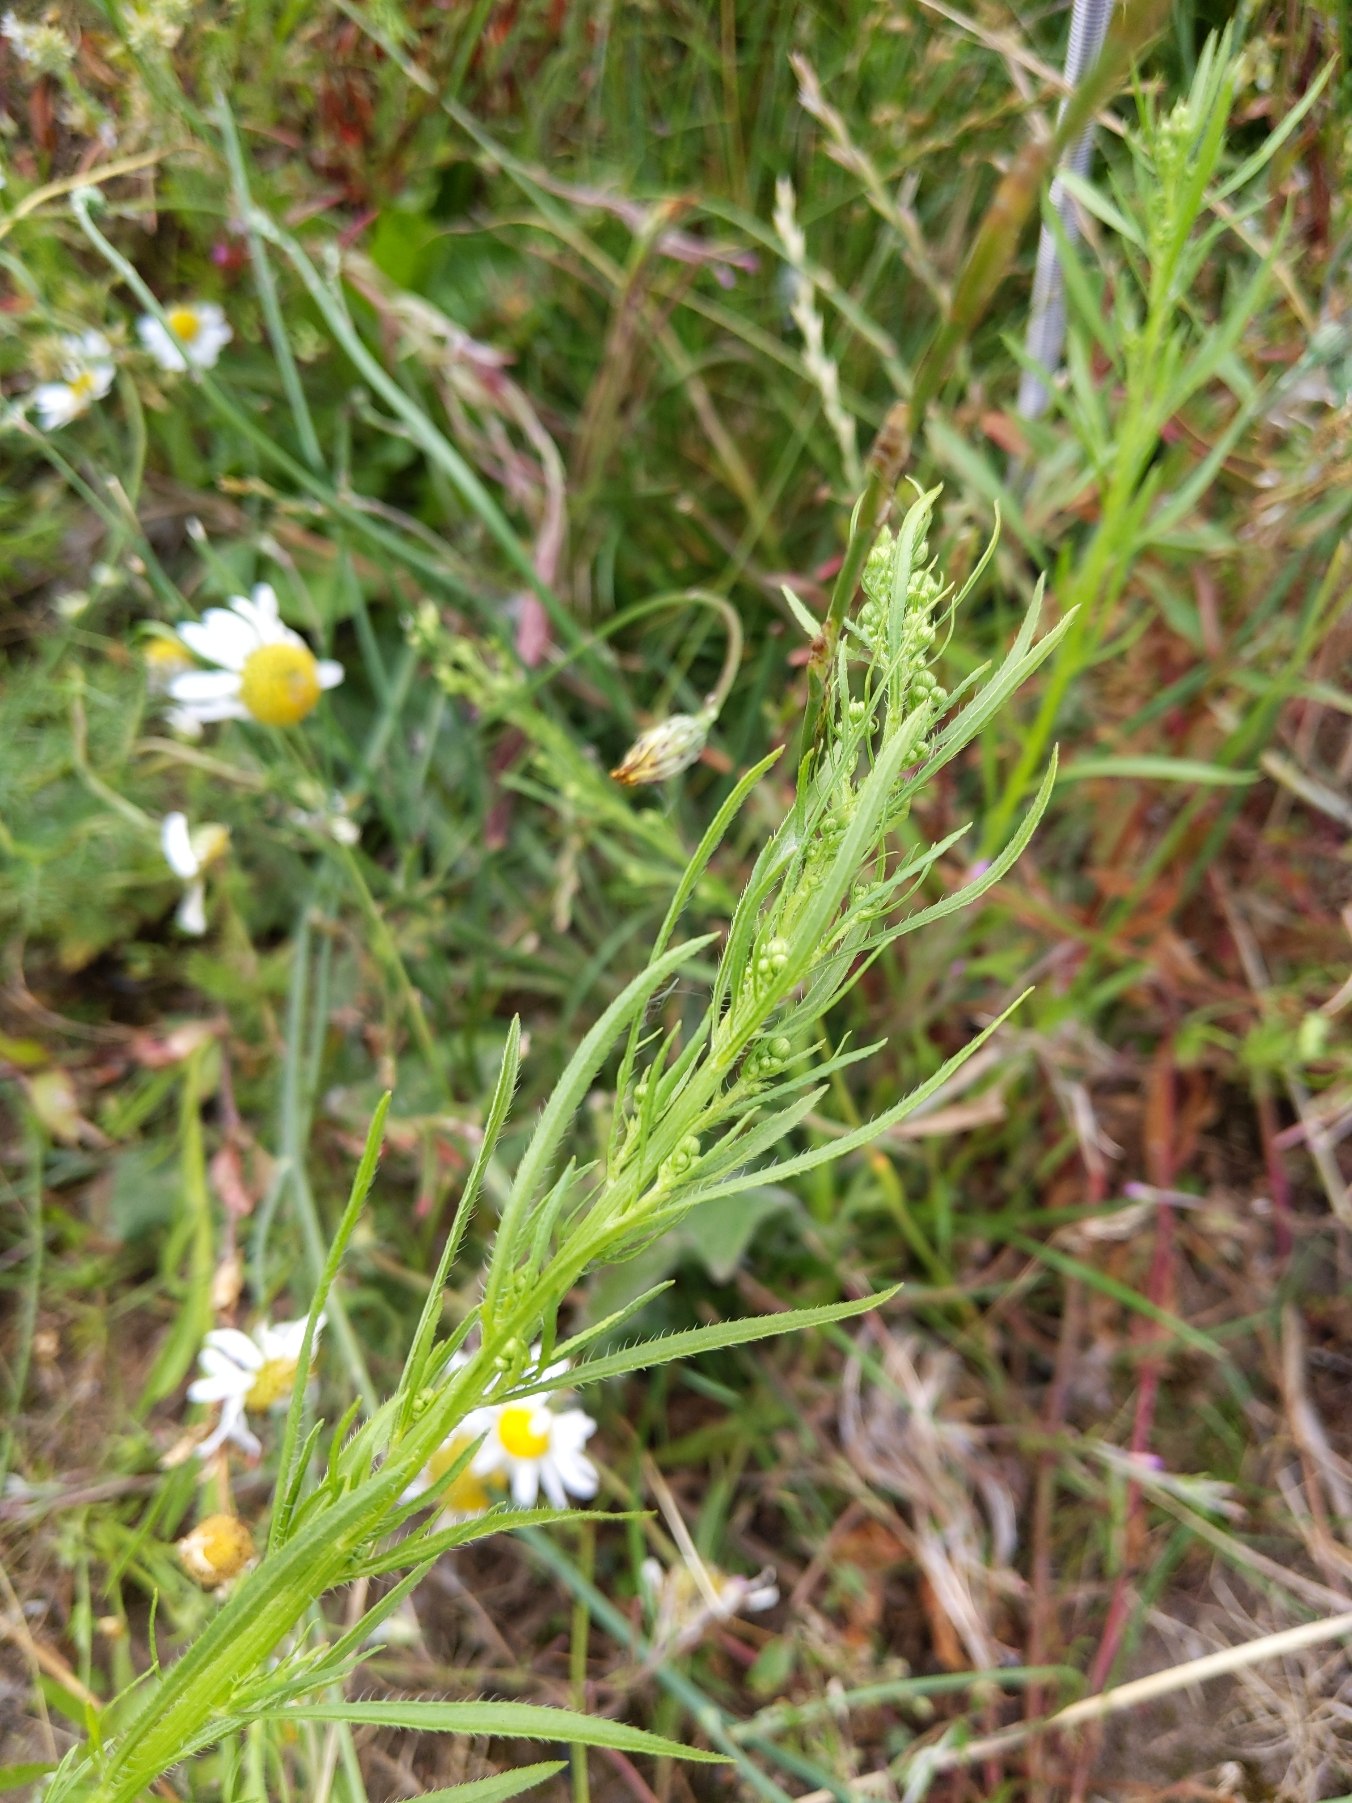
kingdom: Plantae
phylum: Tracheophyta
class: Magnoliopsida
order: Asterales
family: Asteraceae
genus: Erigeron
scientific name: Erigeron canadensis
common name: Kanadisk bakkestjerne
